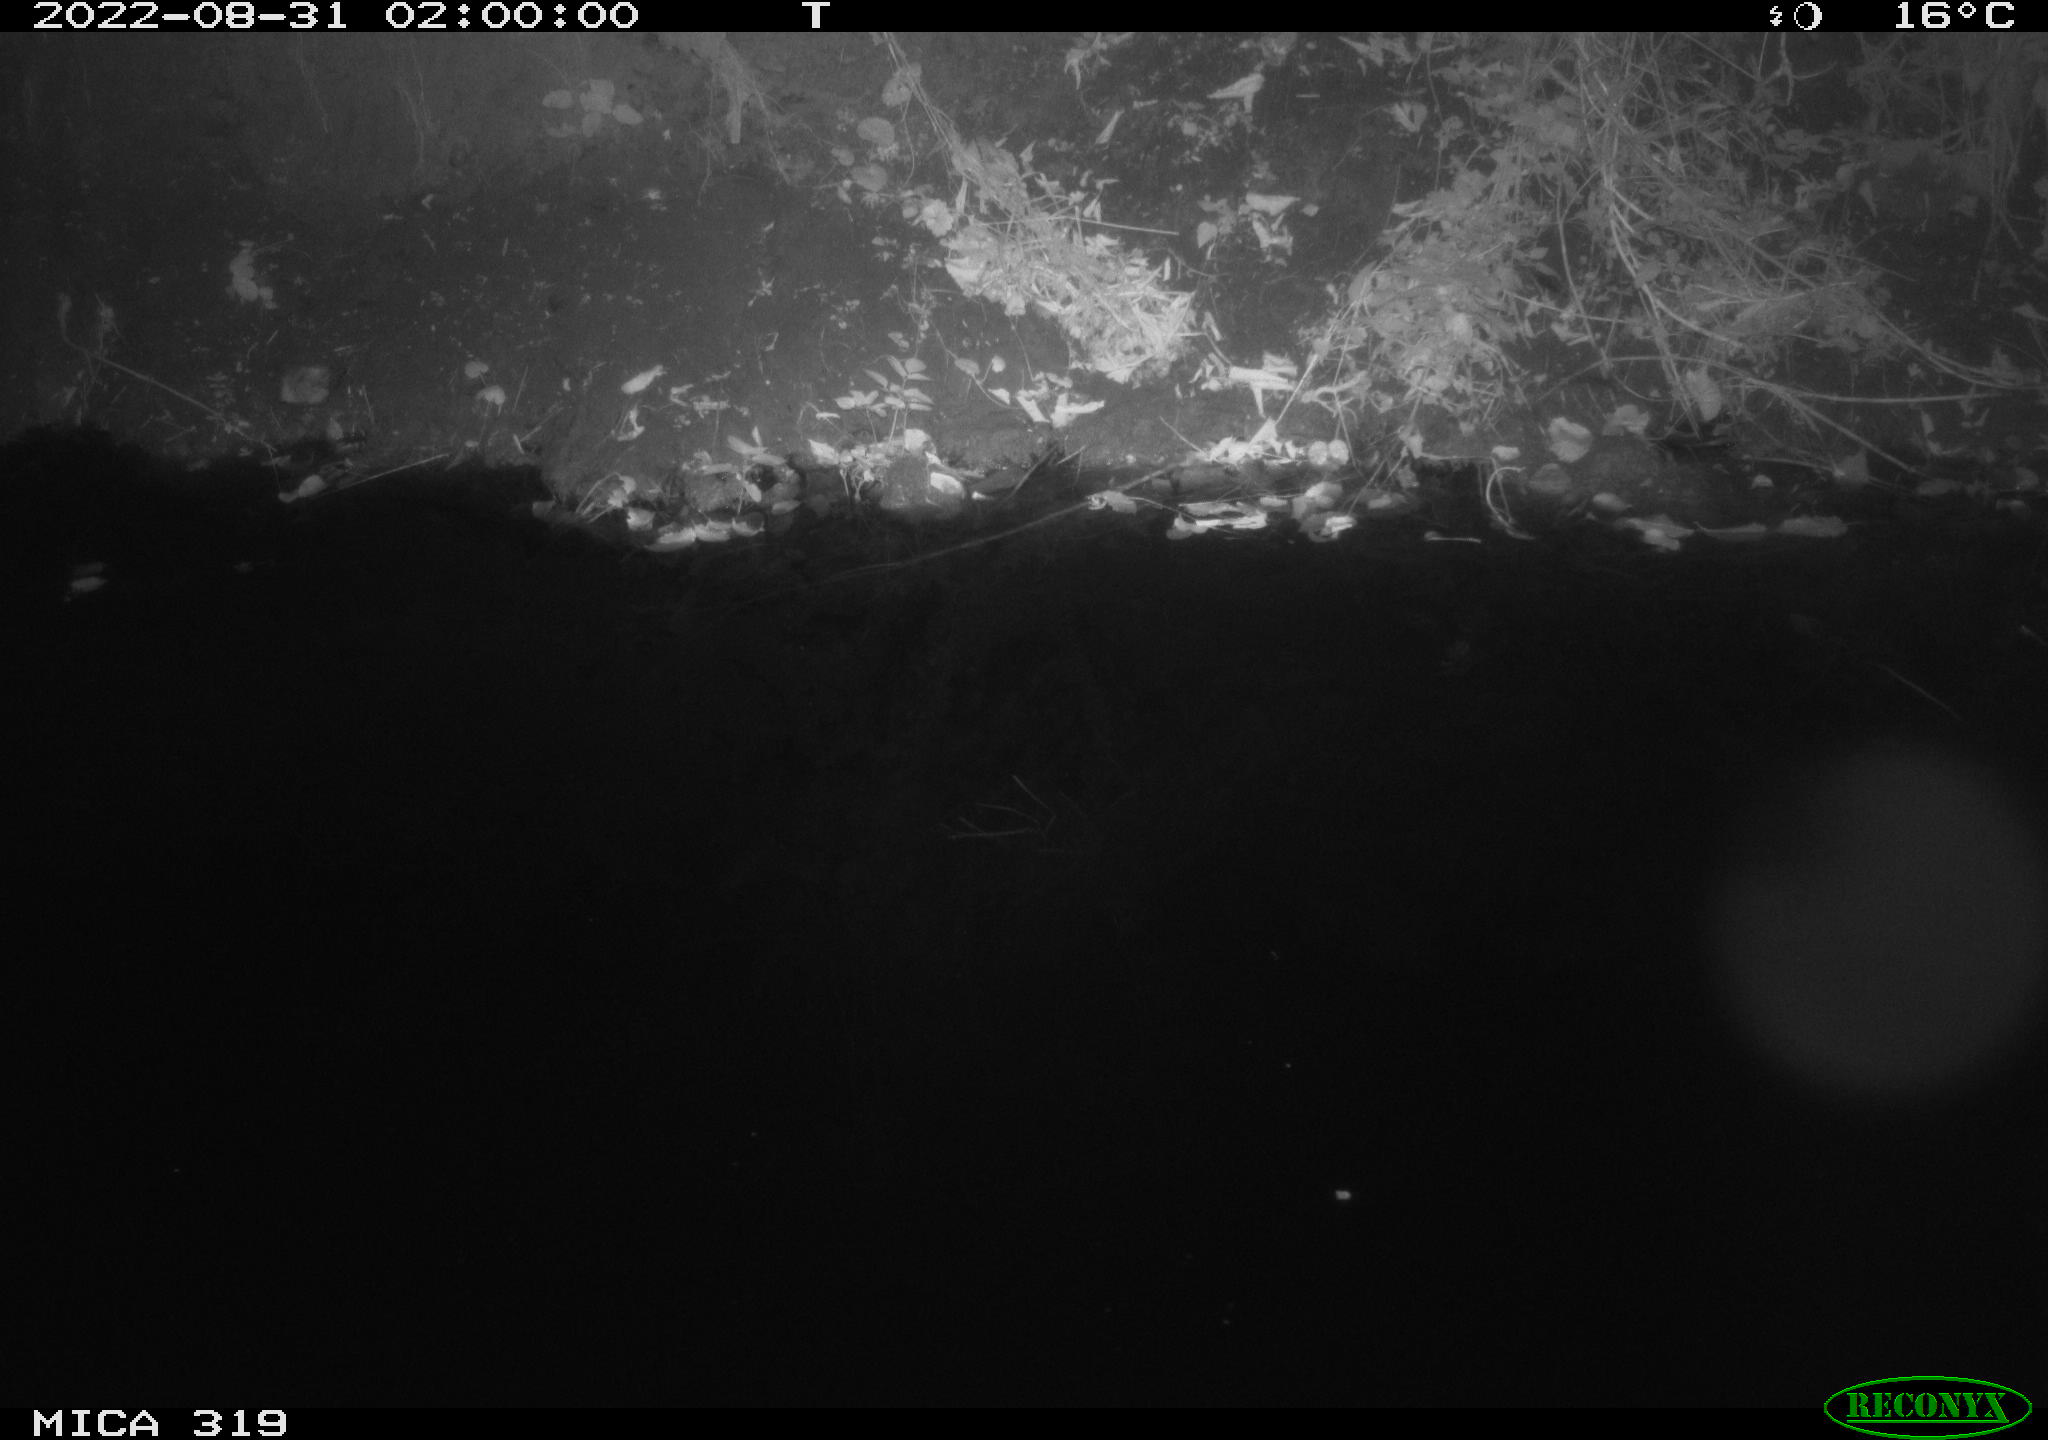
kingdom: Animalia
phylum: Chordata
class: Mammalia
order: Rodentia
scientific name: Rodentia
